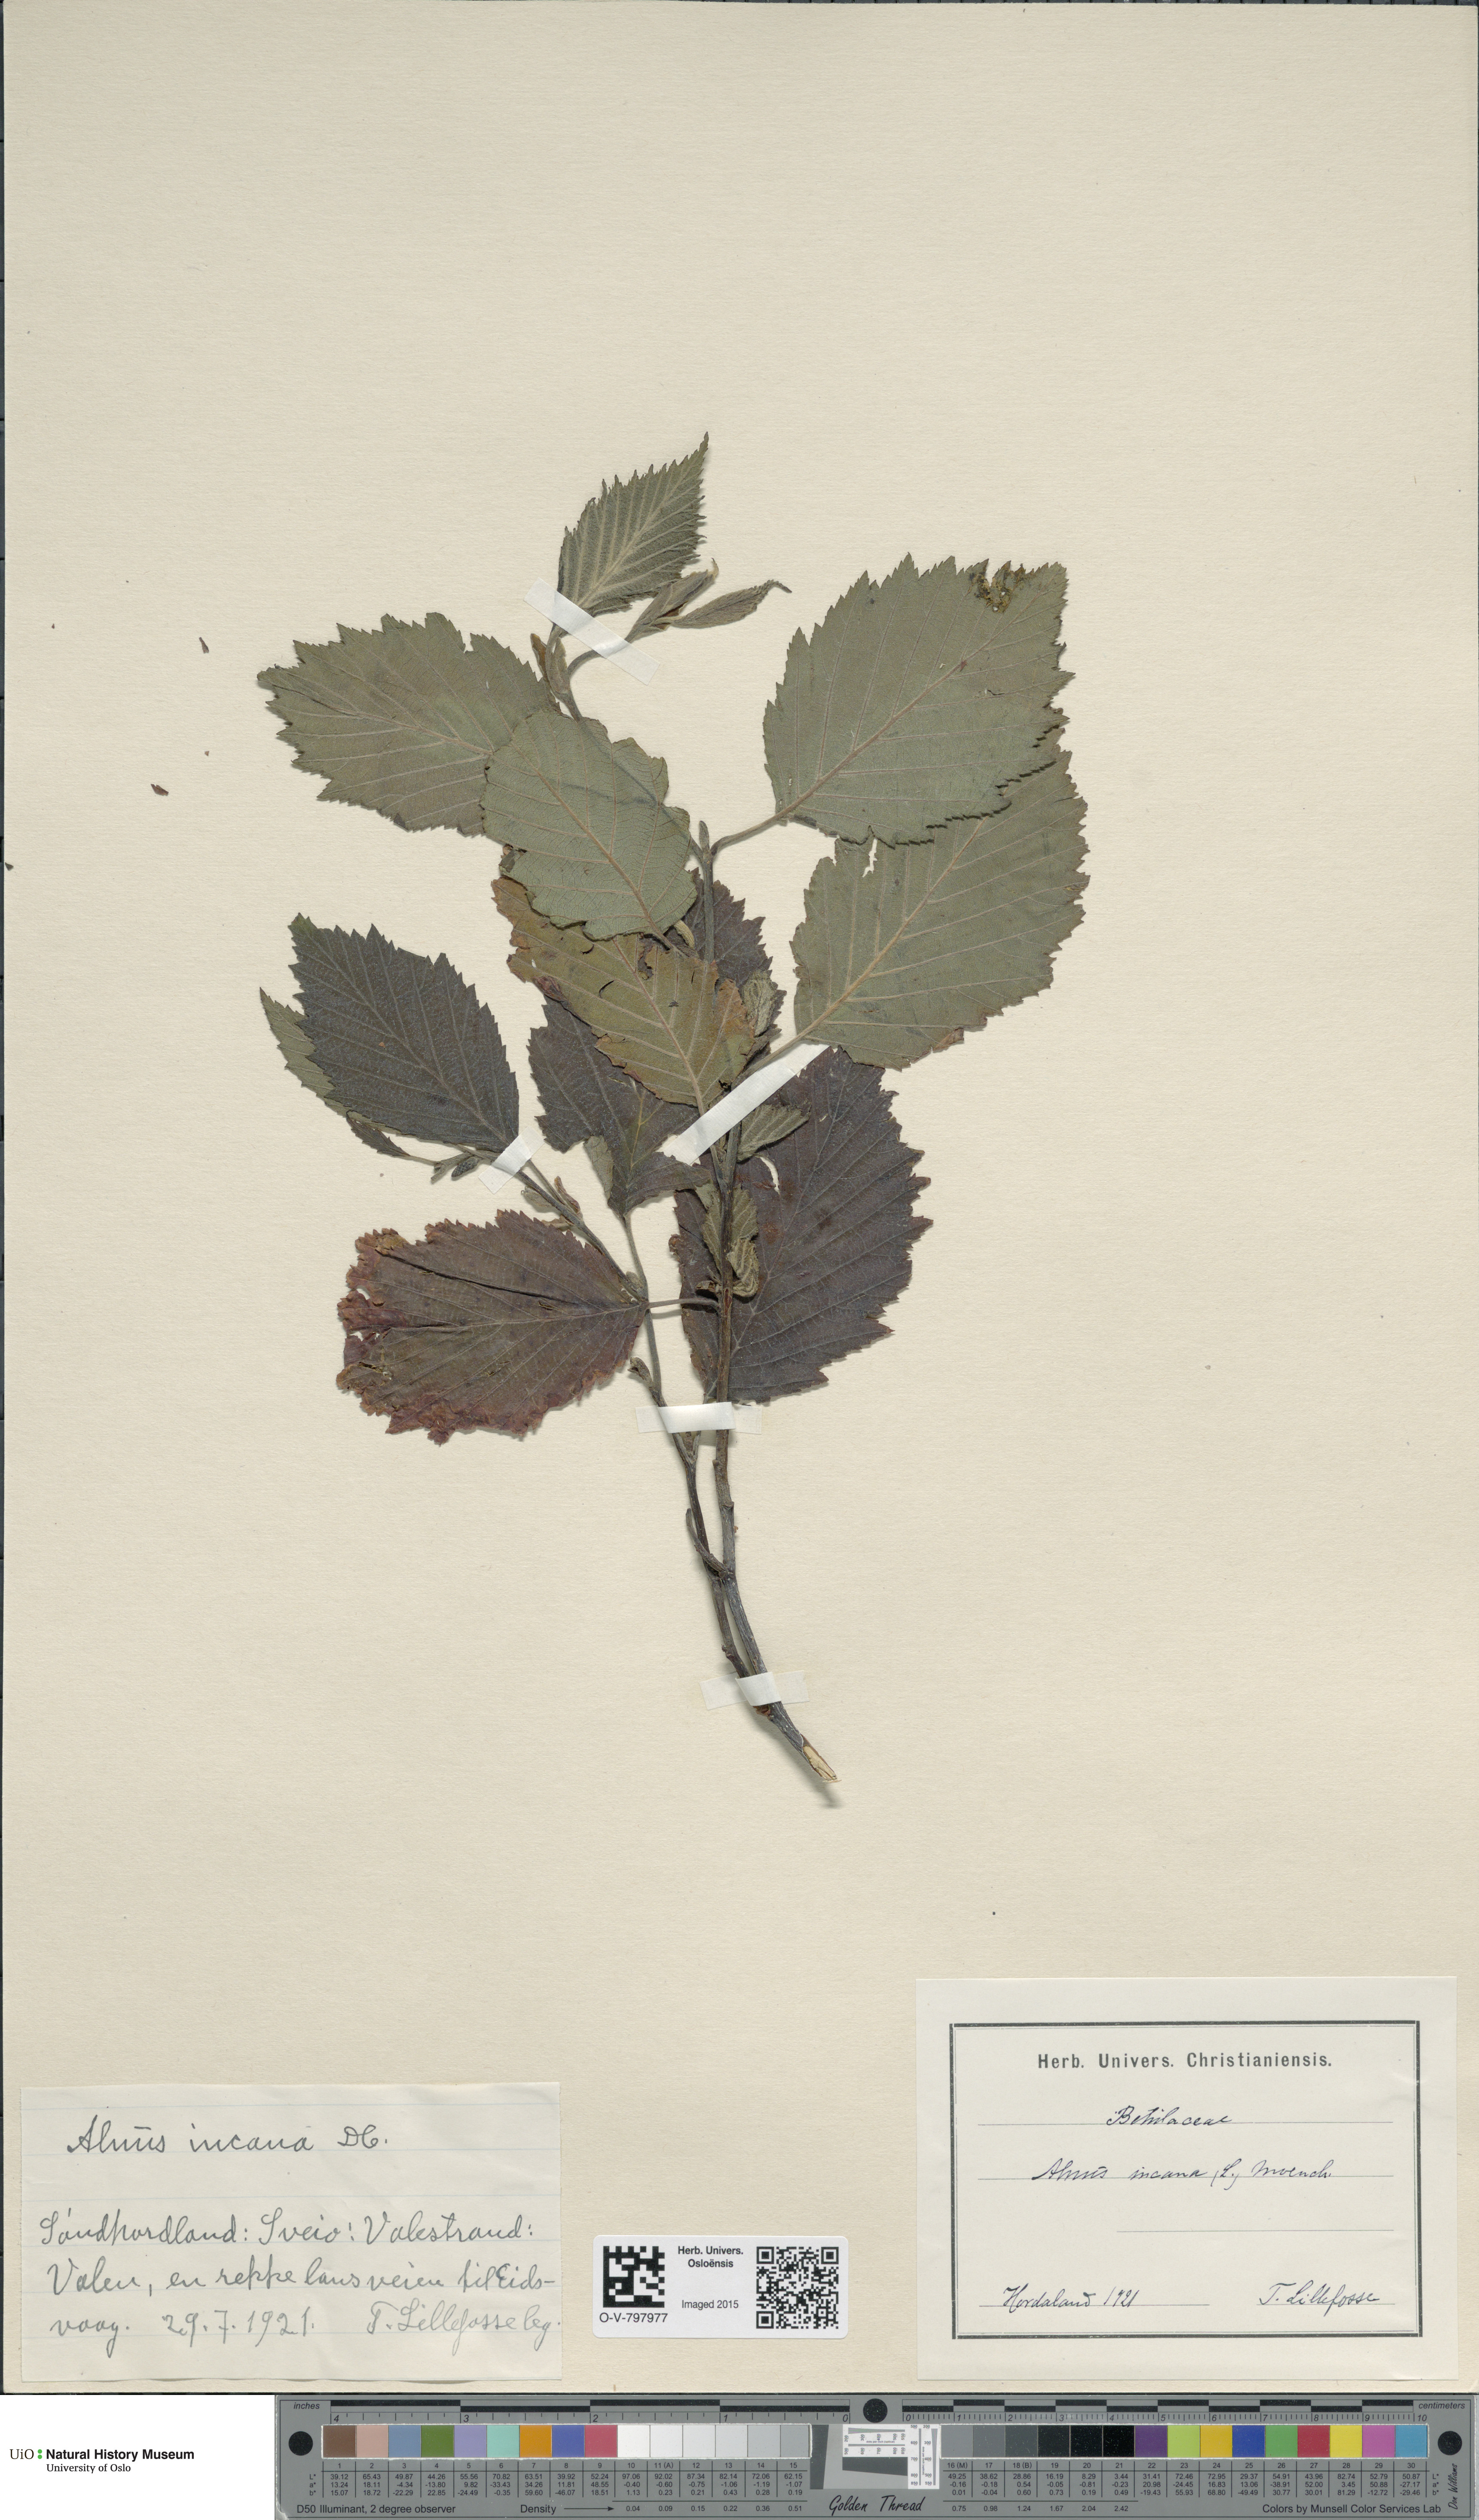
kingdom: Plantae
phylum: Tracheophyta
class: Magnoliopsida
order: Fagales
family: Betulaceae
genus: Alnus
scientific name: Alnus incana
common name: Grey alder
